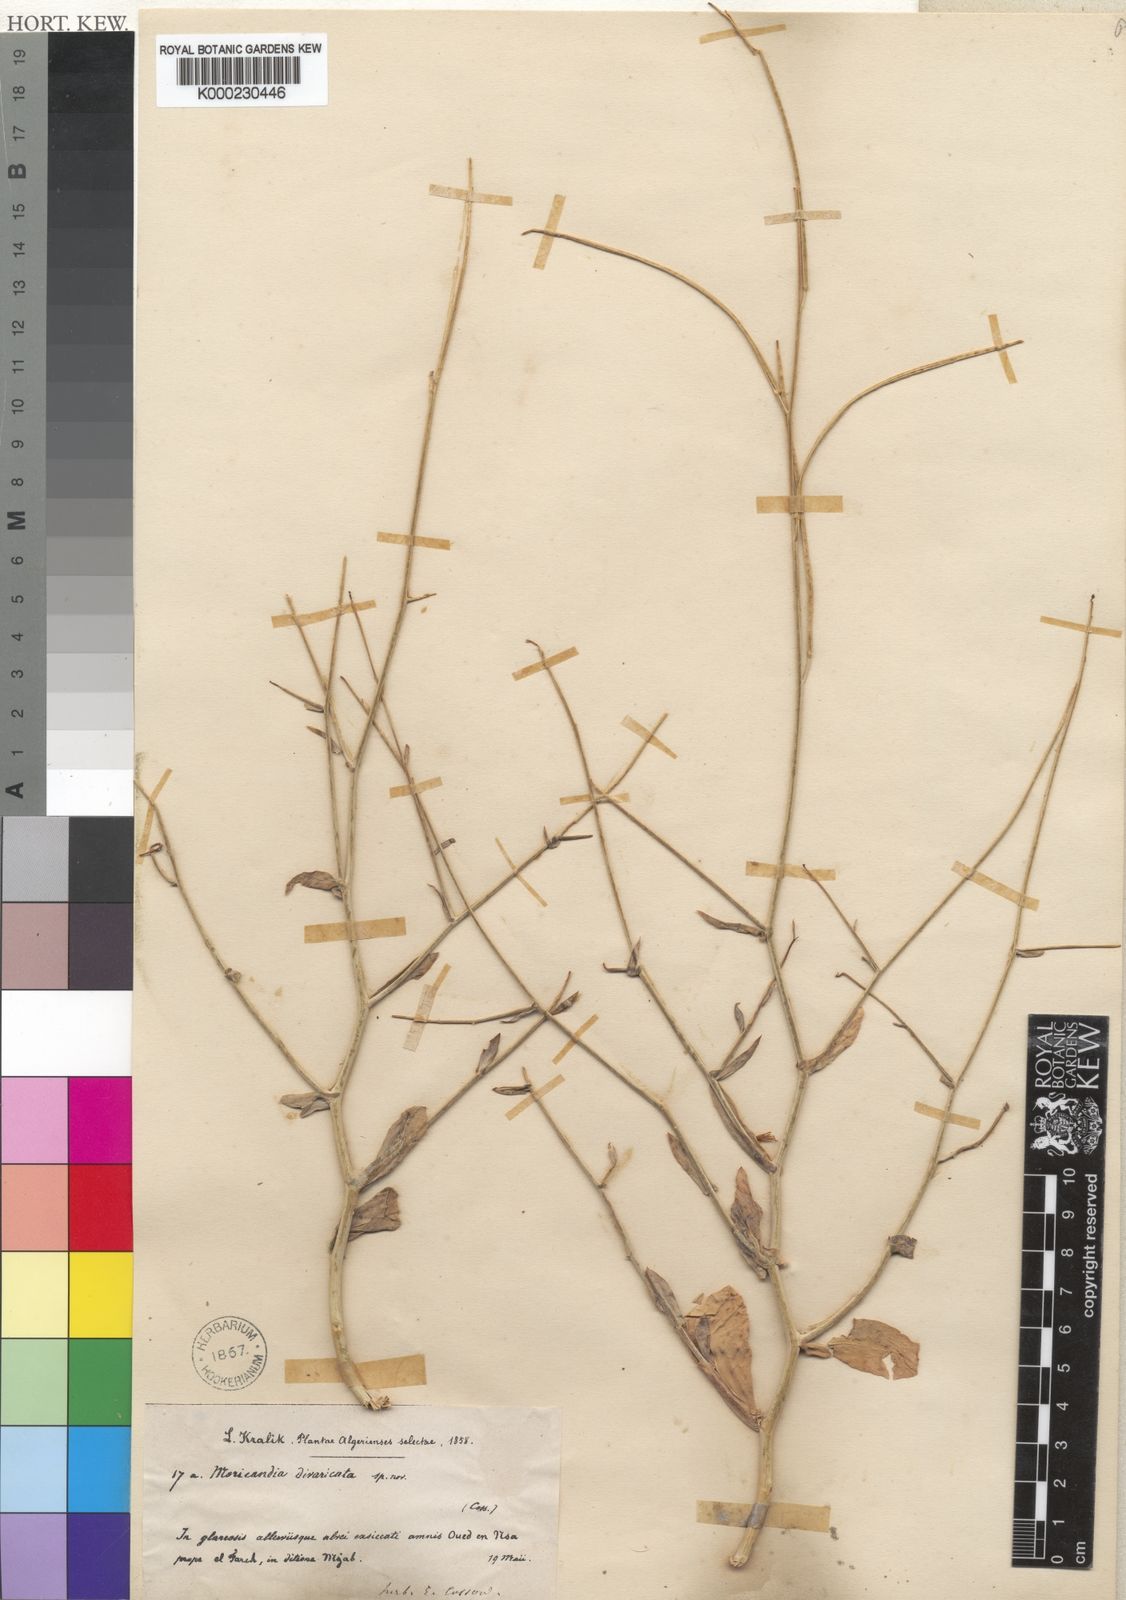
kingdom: Plantae
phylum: Tracheophyta
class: Magnoliopsida
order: Brassicales
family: Brassicaceae
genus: Moricandia
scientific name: Moricandia arvensis
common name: Purple mistress
